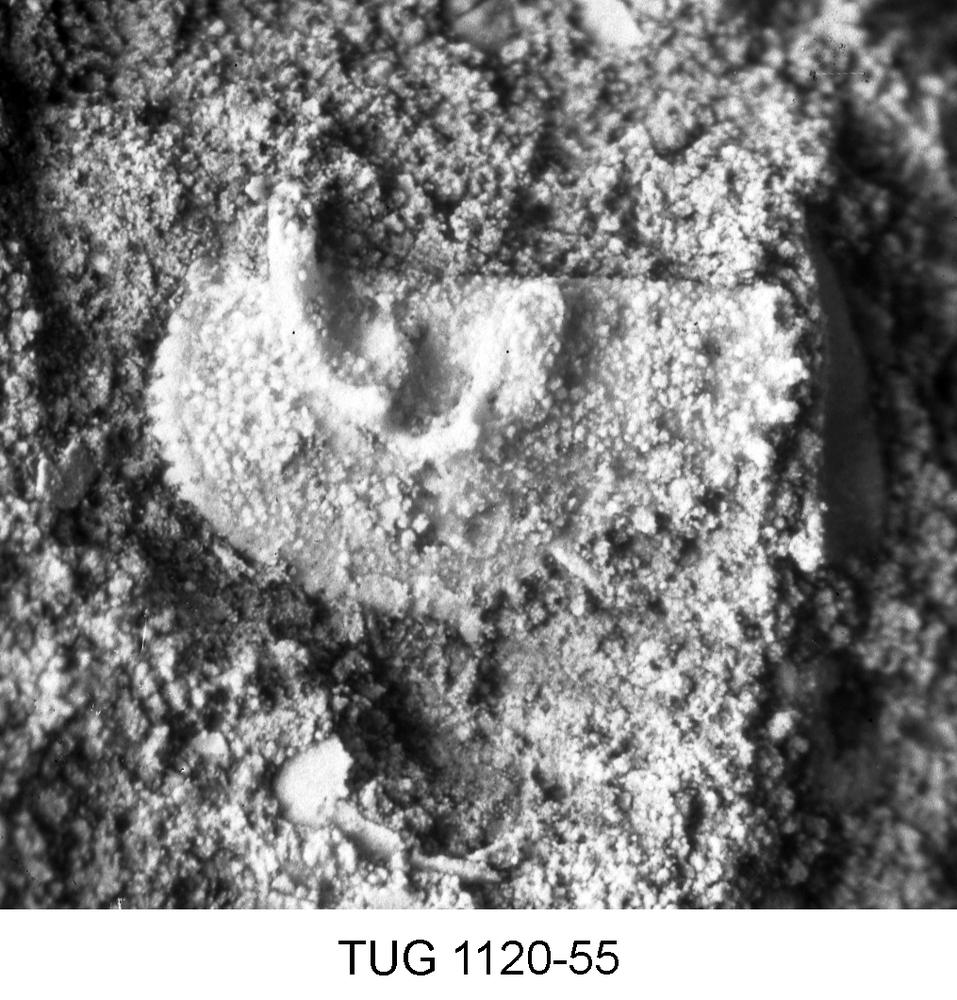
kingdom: Animalia
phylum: Arthropoda
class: Ostracoda
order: Palaeocopida
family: Ctenonotellidae
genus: Rakverella
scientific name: Rakverella
